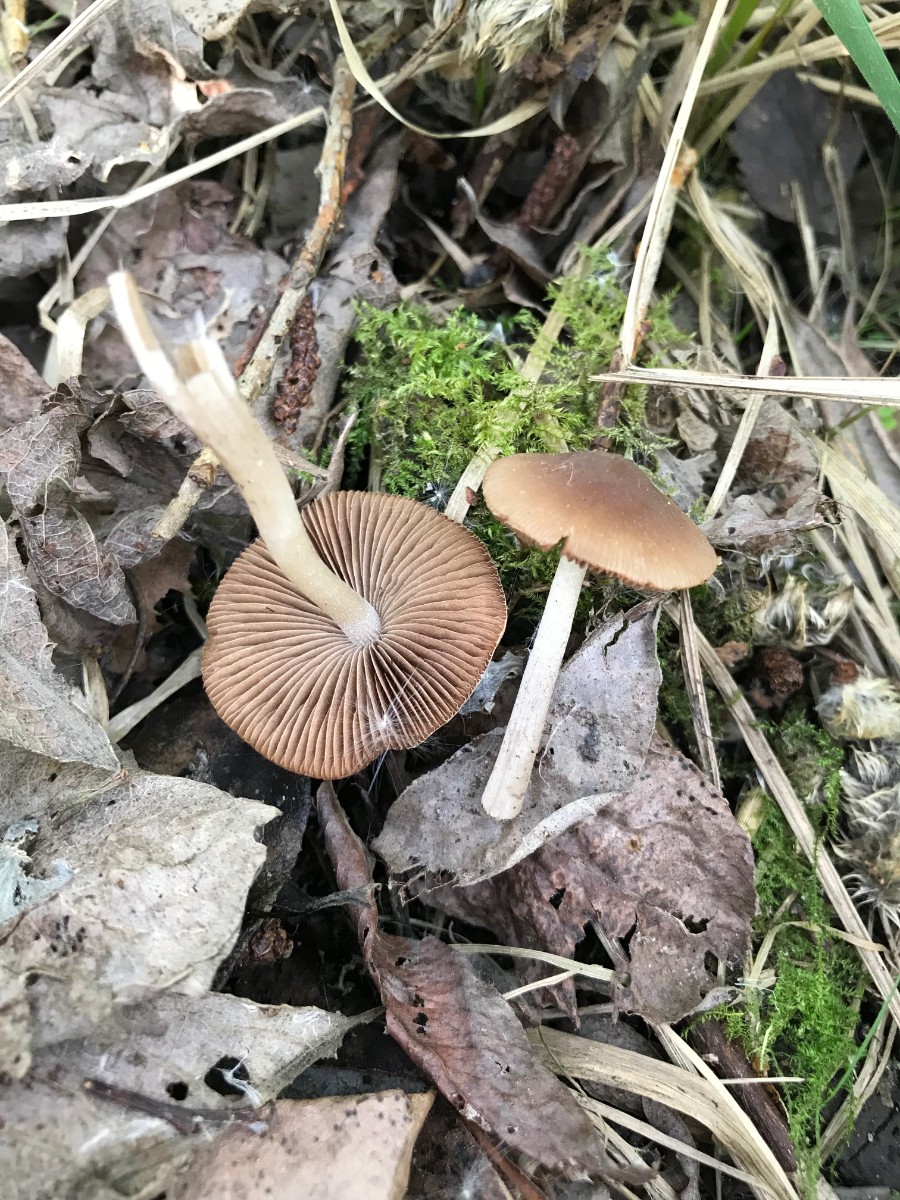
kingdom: Fungi
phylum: Basidiomycota
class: Agaricomycetes
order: Agaricales
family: Psathyrellaceae
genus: Psathyrella
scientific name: Psathyrella
